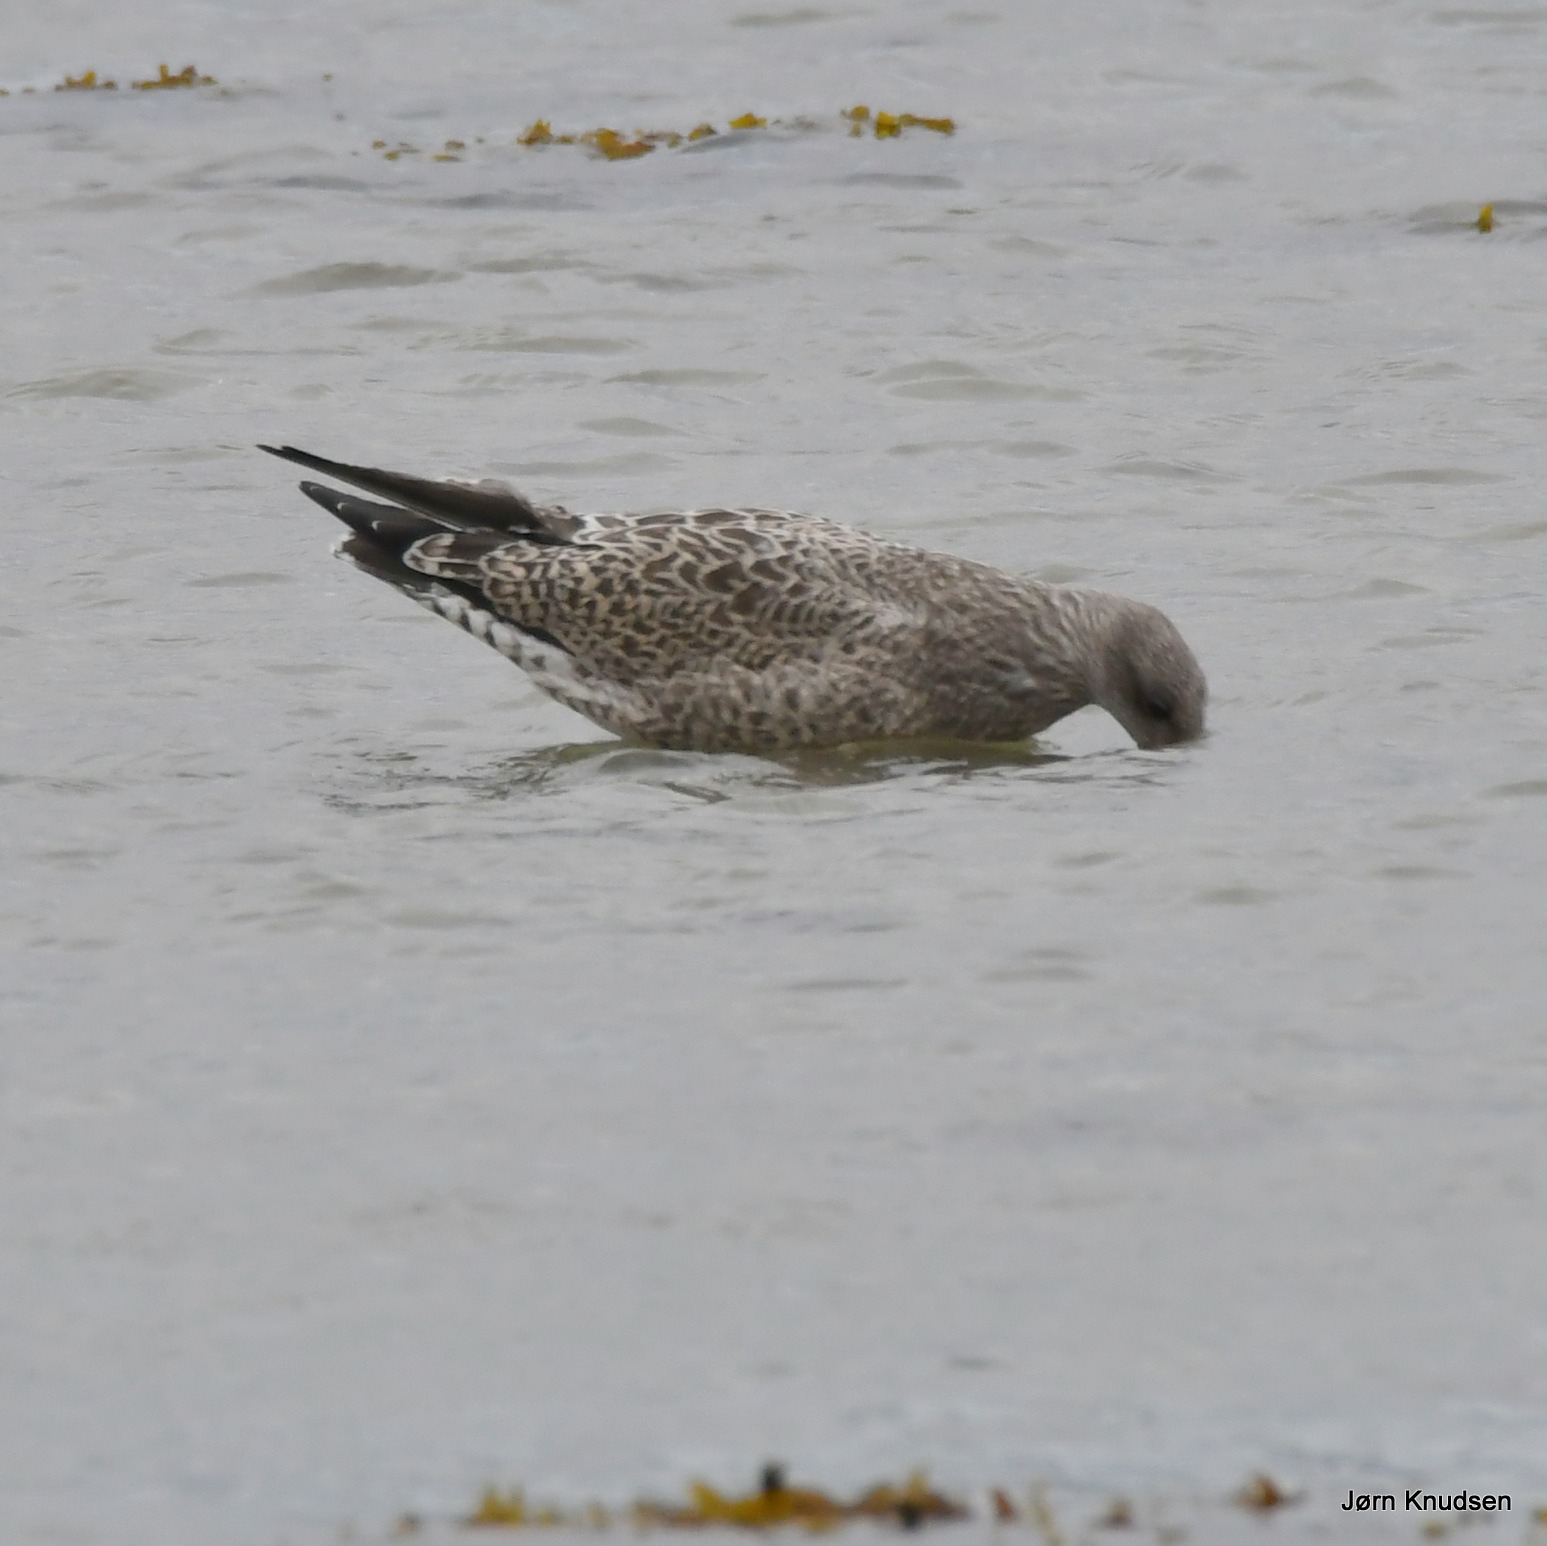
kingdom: Animalia
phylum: Chordata
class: Aves
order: Charadriiformes
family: Laridae
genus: Larus
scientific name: Larus argentatus
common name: Sølvmåge
